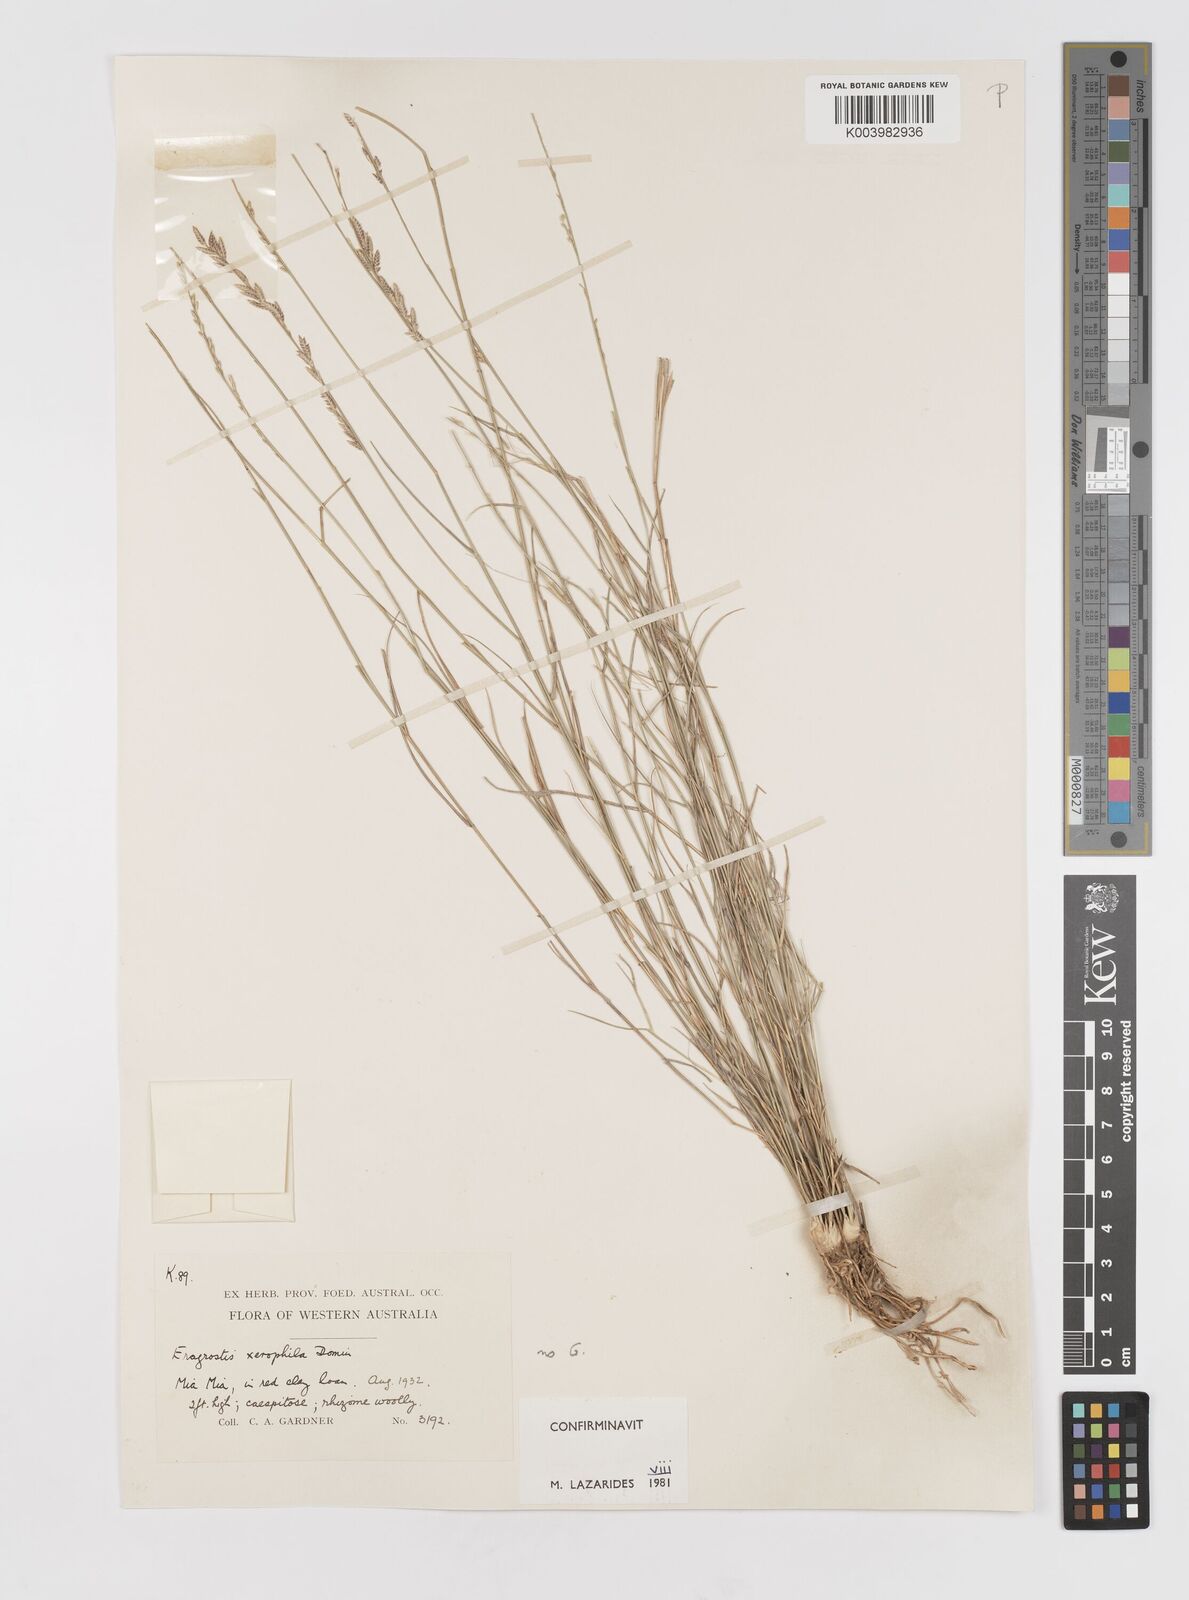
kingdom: Plantae
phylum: Tracheophyta
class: Liliopsida
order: Poales
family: Poaceae
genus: Eragrostis
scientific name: Eragrostis xerophila
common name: Wire wandarrie grass
